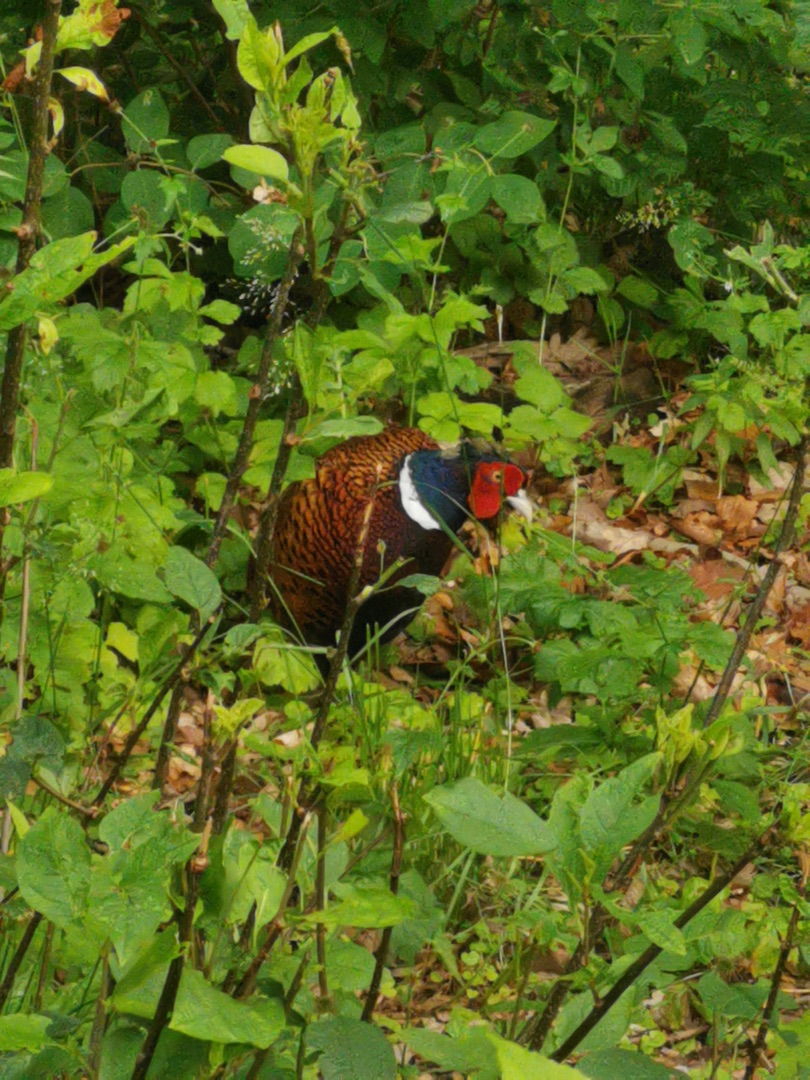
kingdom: Animalia
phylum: Chordata
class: Aves
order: Galliformes
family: Phasianidae
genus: Phasianus
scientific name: Phasianus colchicus
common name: Fasan
